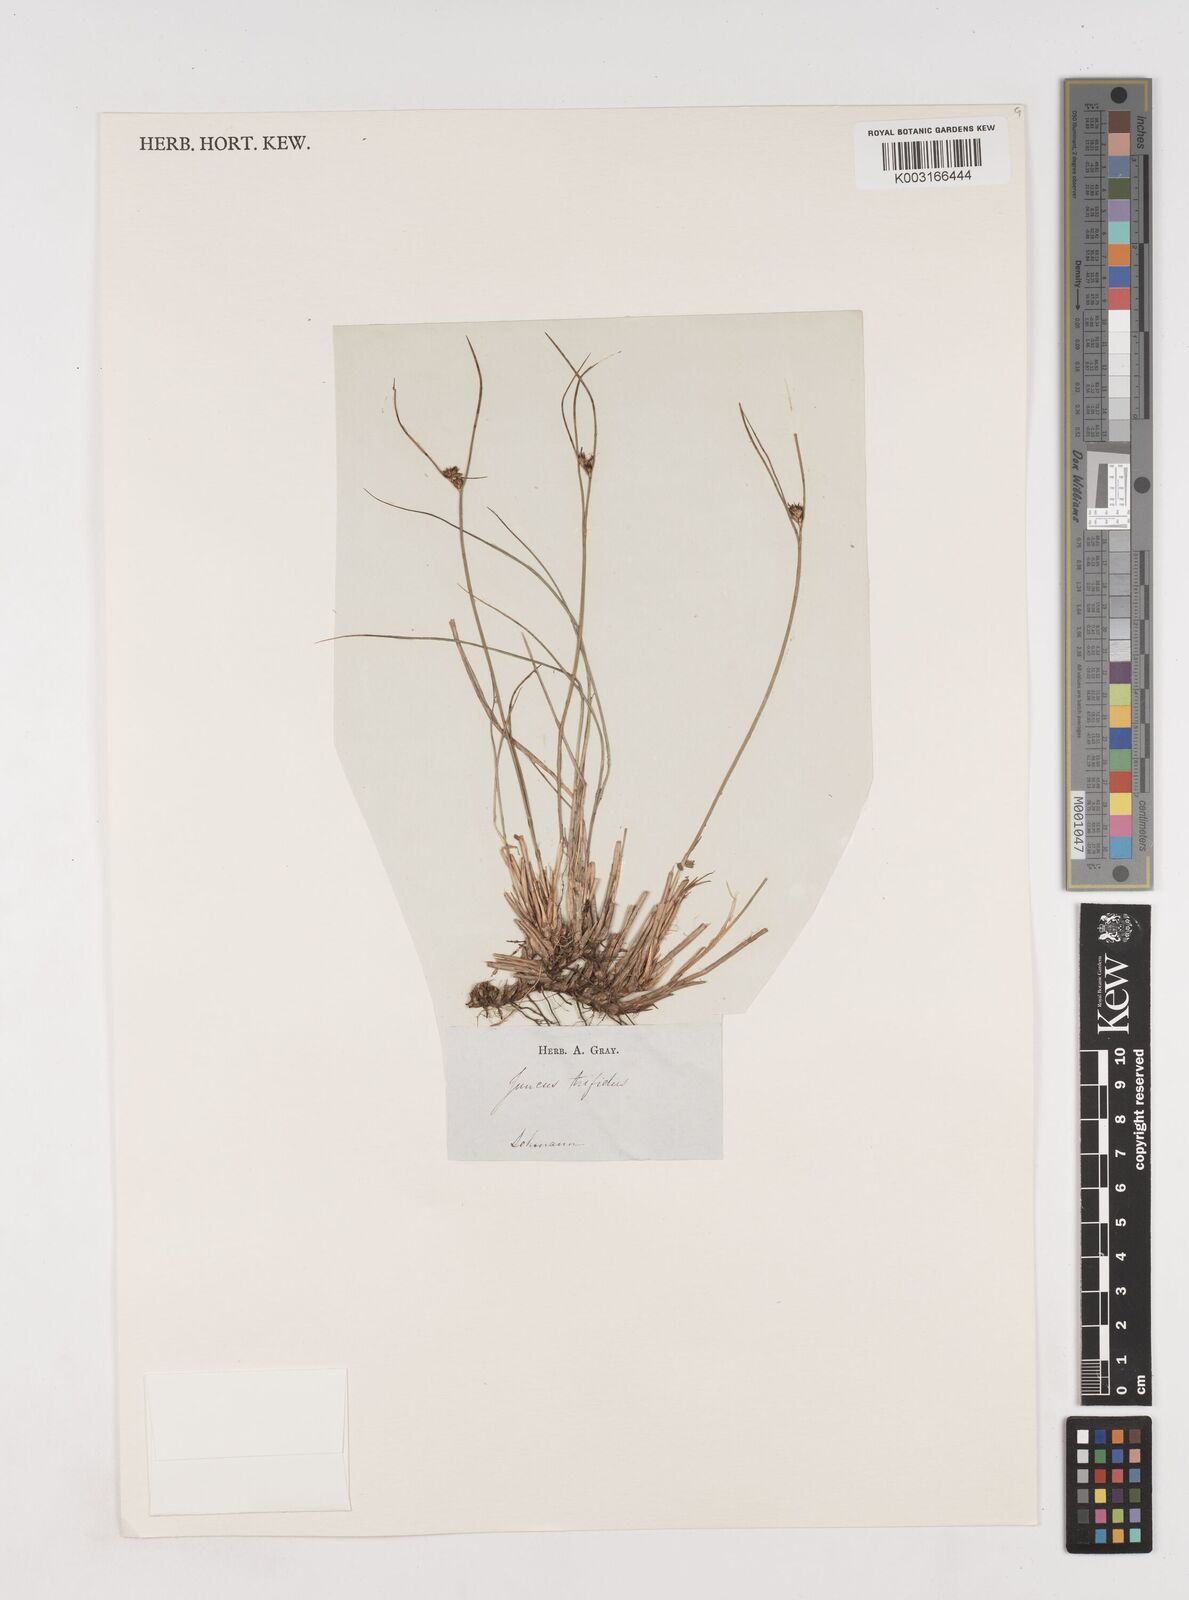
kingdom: Plantae
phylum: Tracheophyta
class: Liliopsida
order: Poales
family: Juncaceae
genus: Oreojuncus
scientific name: Oreojuncus trifidus
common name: Highland rush
